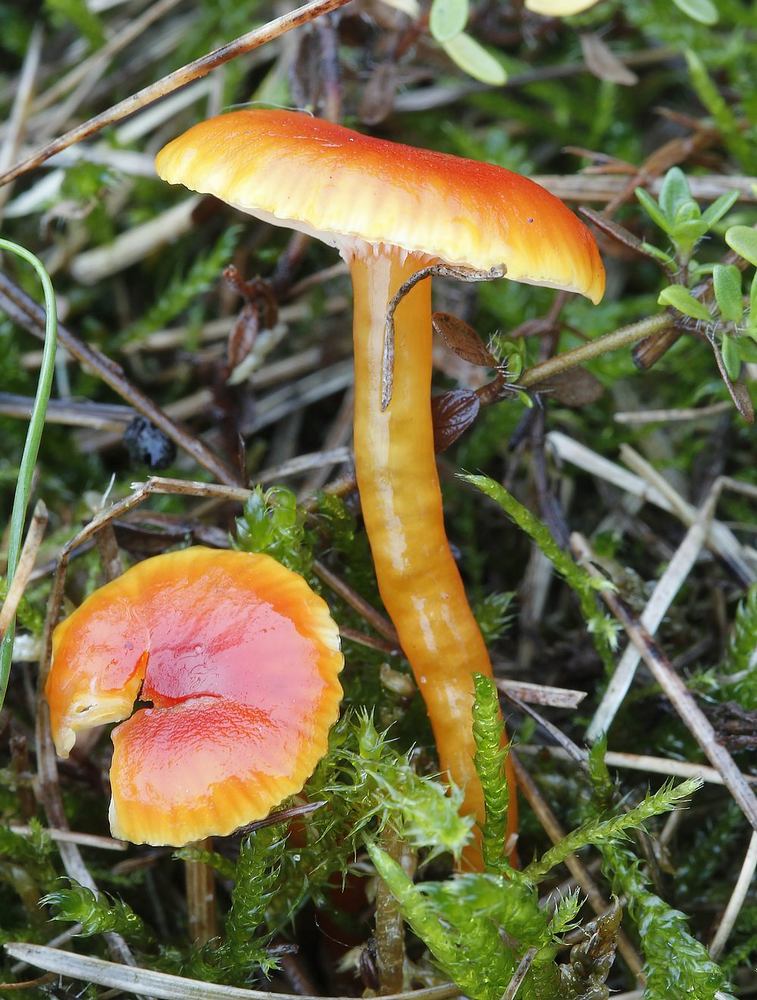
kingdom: Fungi
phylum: Basidiomycota
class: Agaricomycetes
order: Agaricales
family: Hygrophoraceae
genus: Hygrocybe
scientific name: Hygrocybe insipida
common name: liden vokshat
